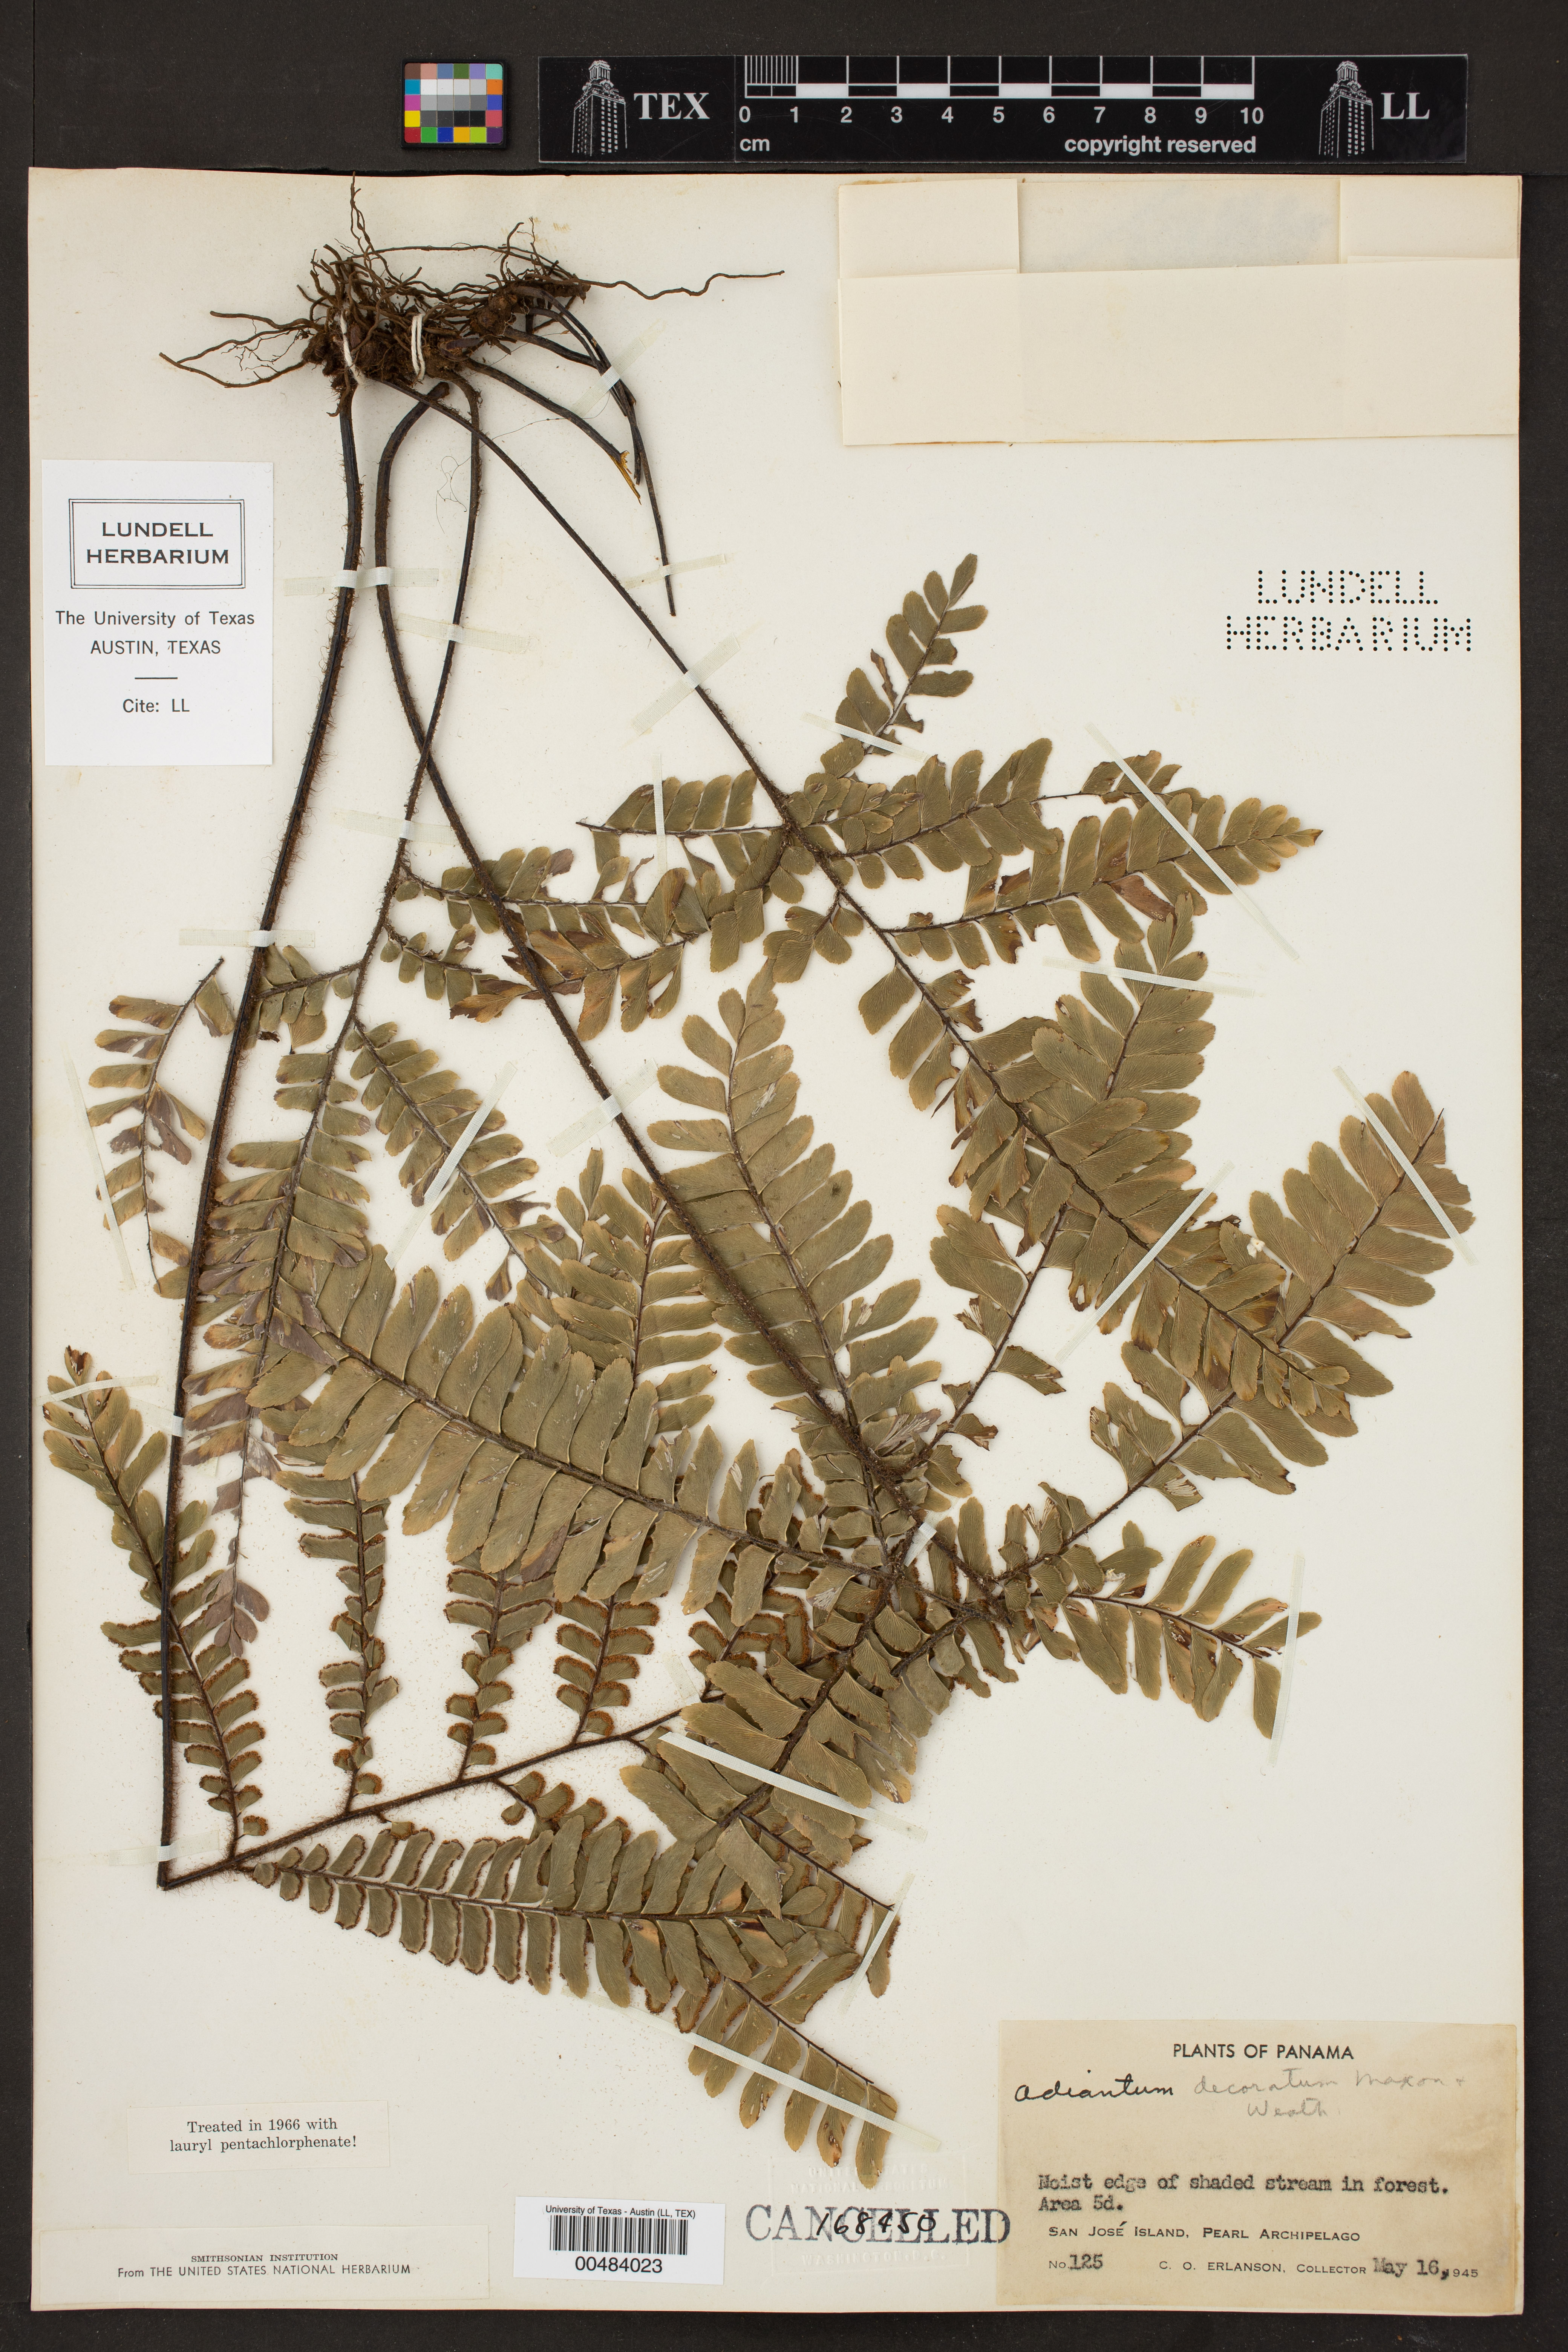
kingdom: Plantae
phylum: Tracheophyta
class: Polypodiopsida
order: Polypodiales
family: Pteridaceae
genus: Adiantum
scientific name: Adiantum decoratum
